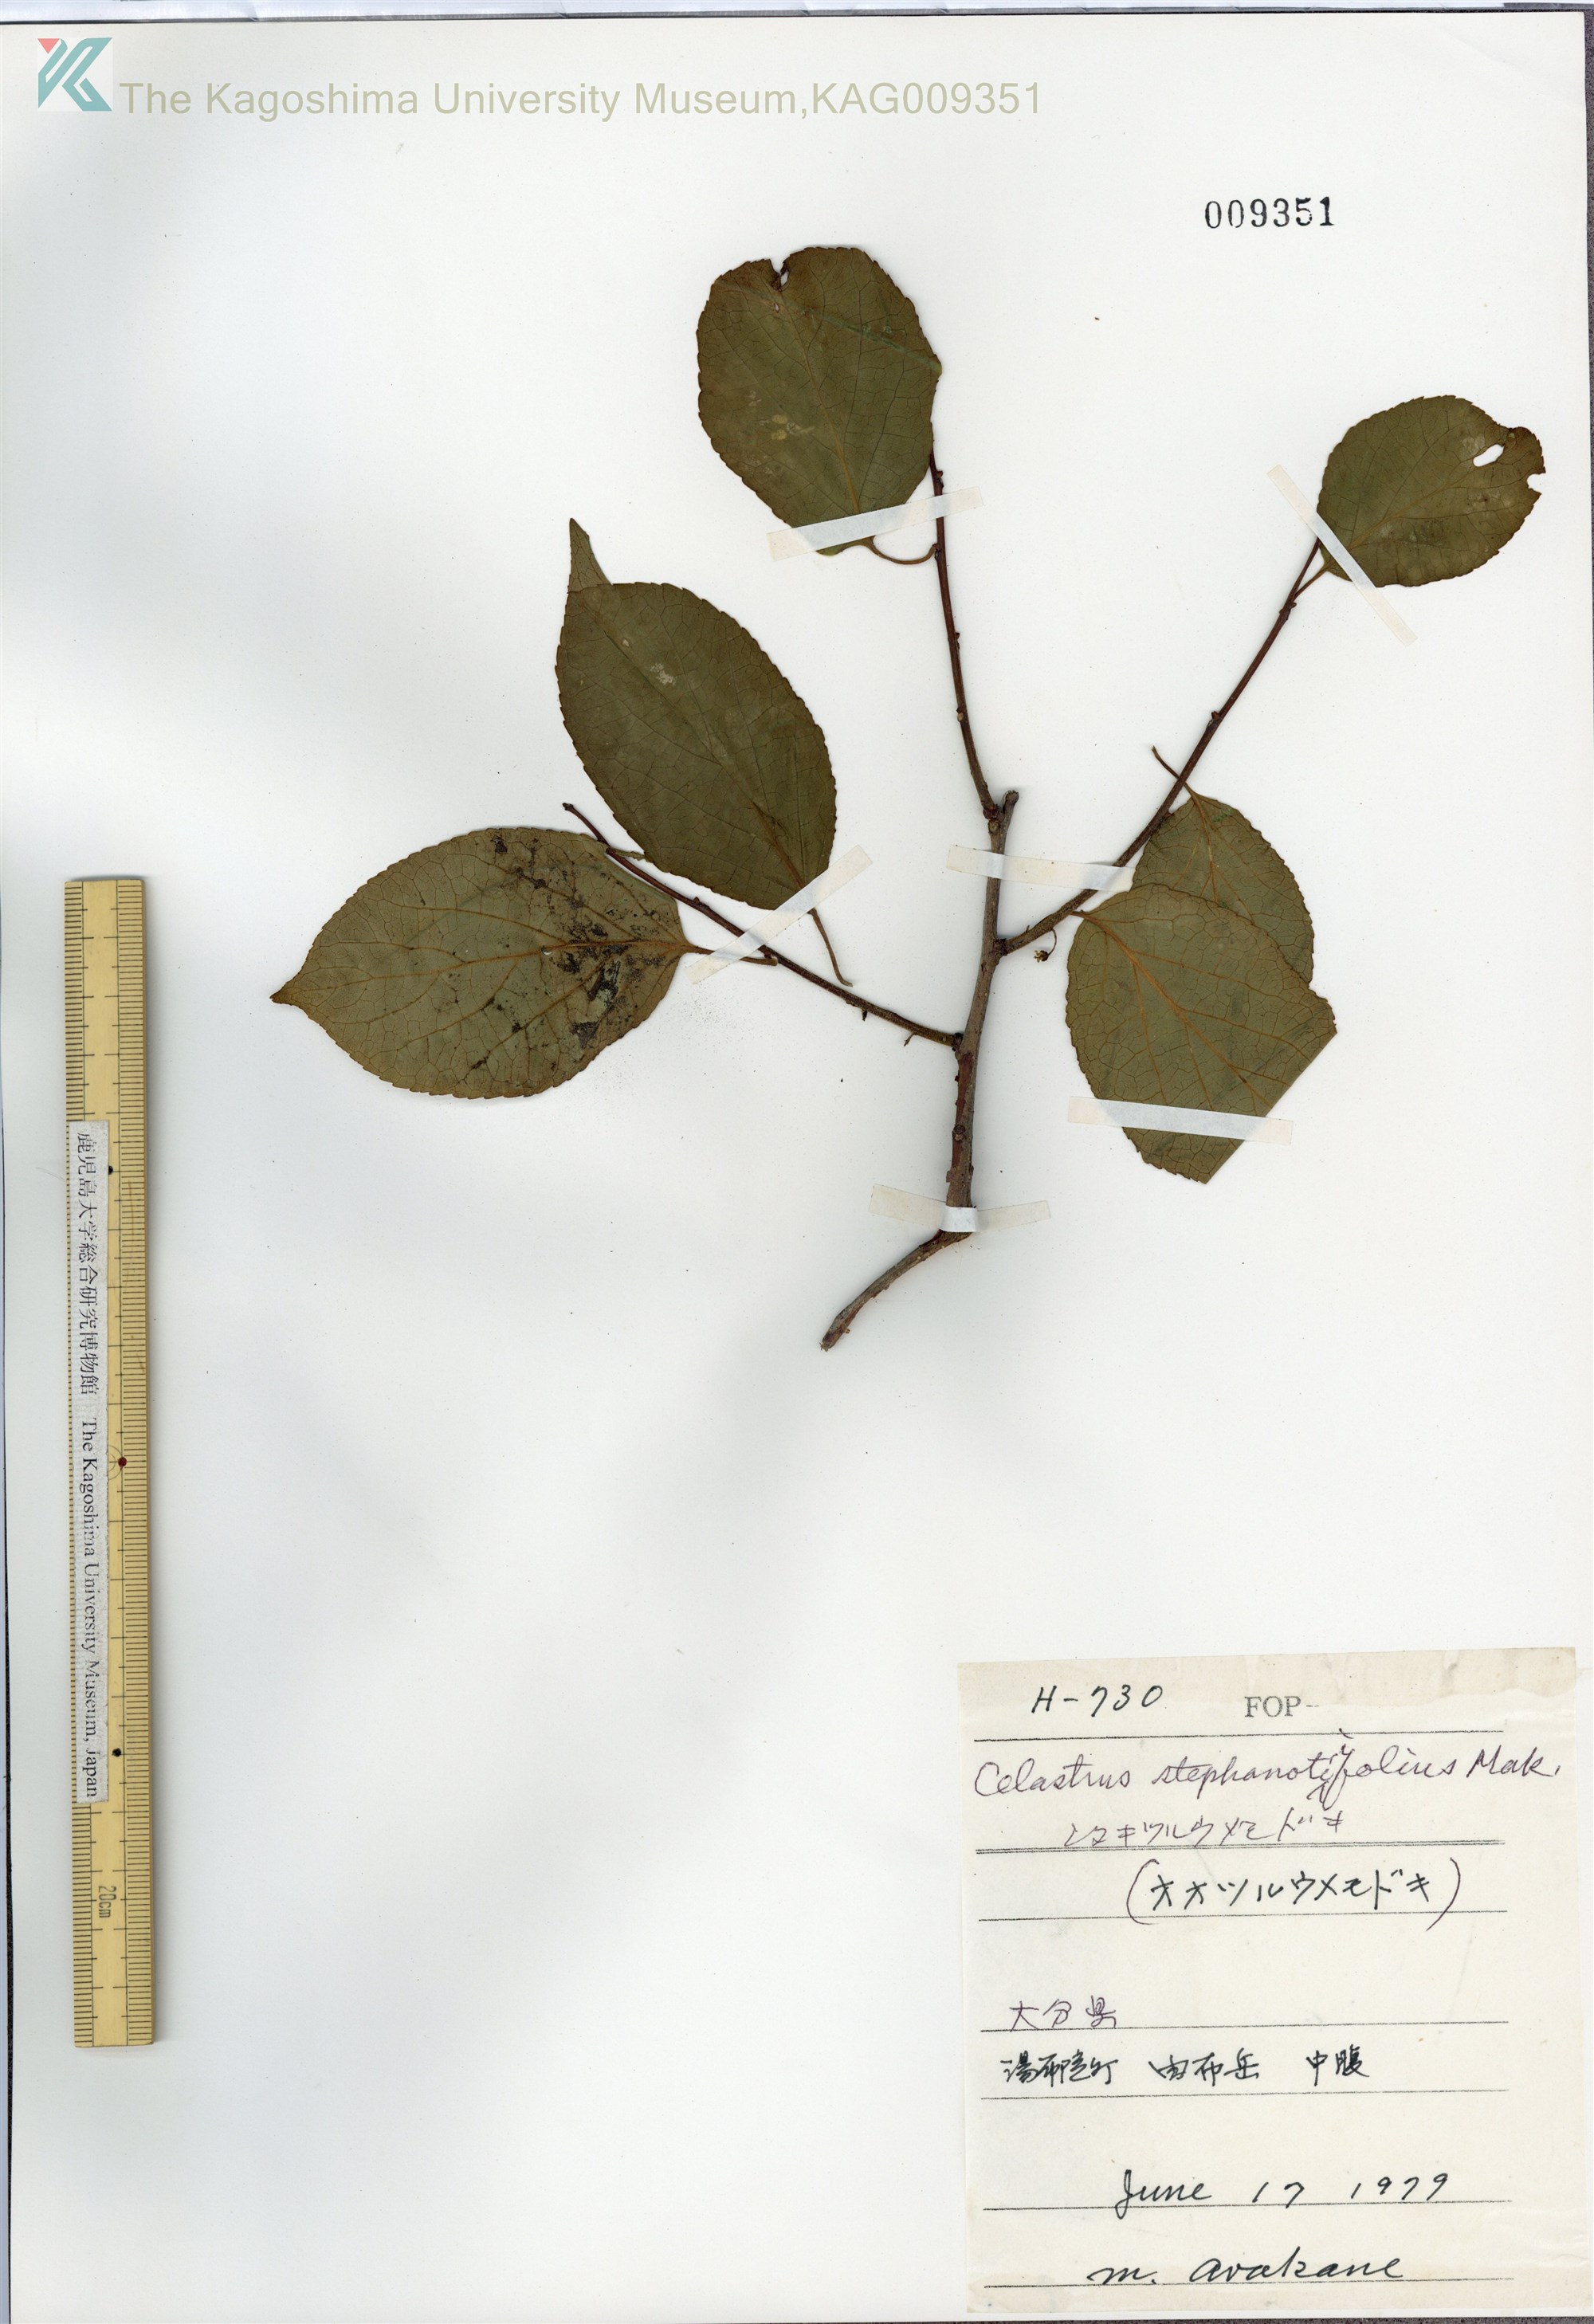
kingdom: Plantae
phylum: Tracheophyta
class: Magnoliopsida
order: Celastrales
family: Celastraceae
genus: Celastrus
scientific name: Celastrus stephanotifolius
